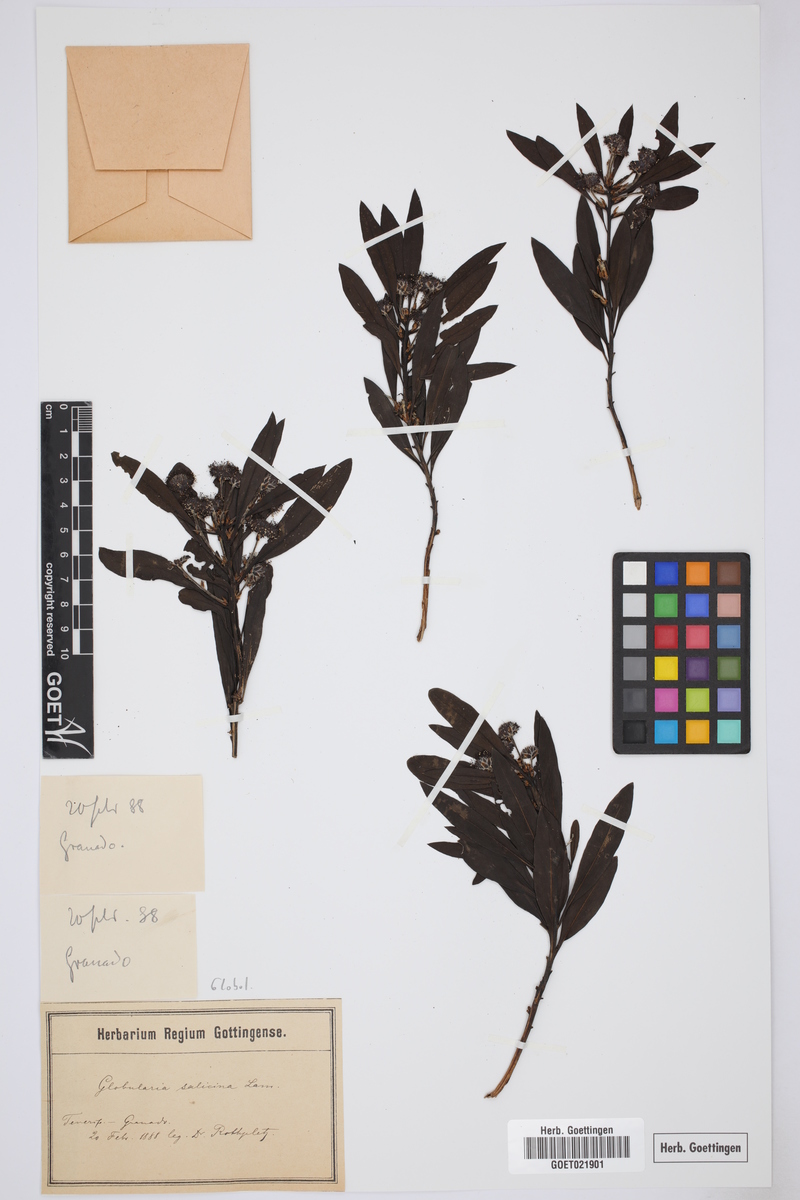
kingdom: Plantae
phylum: Tracheophyta
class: Magnoliopsida
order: Lamiales
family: Plantaginaceae
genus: Globularia
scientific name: Globularia salicina
